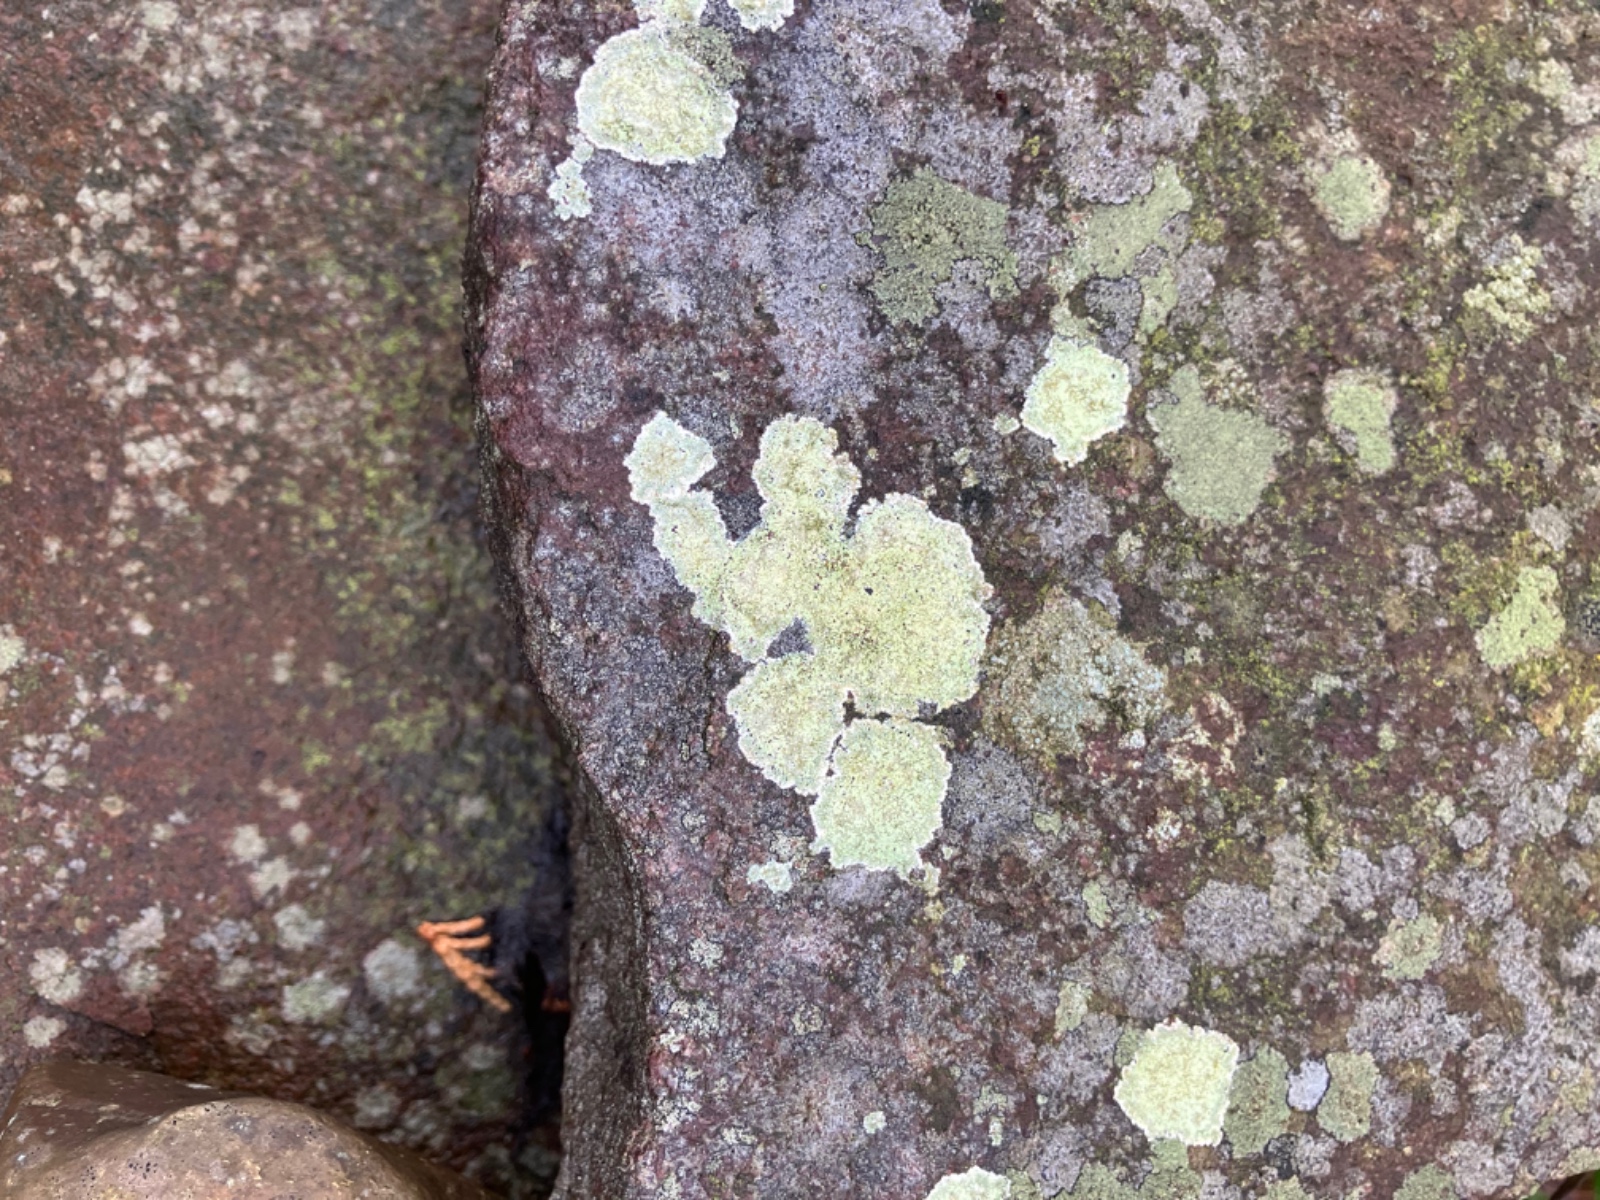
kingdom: Fungi
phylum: Ascomycota
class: Lecanoromycetes
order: Lecanorales
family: Lecanoraceae
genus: Lecidella
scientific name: Lecidella scabra
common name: skurvet skivelav
